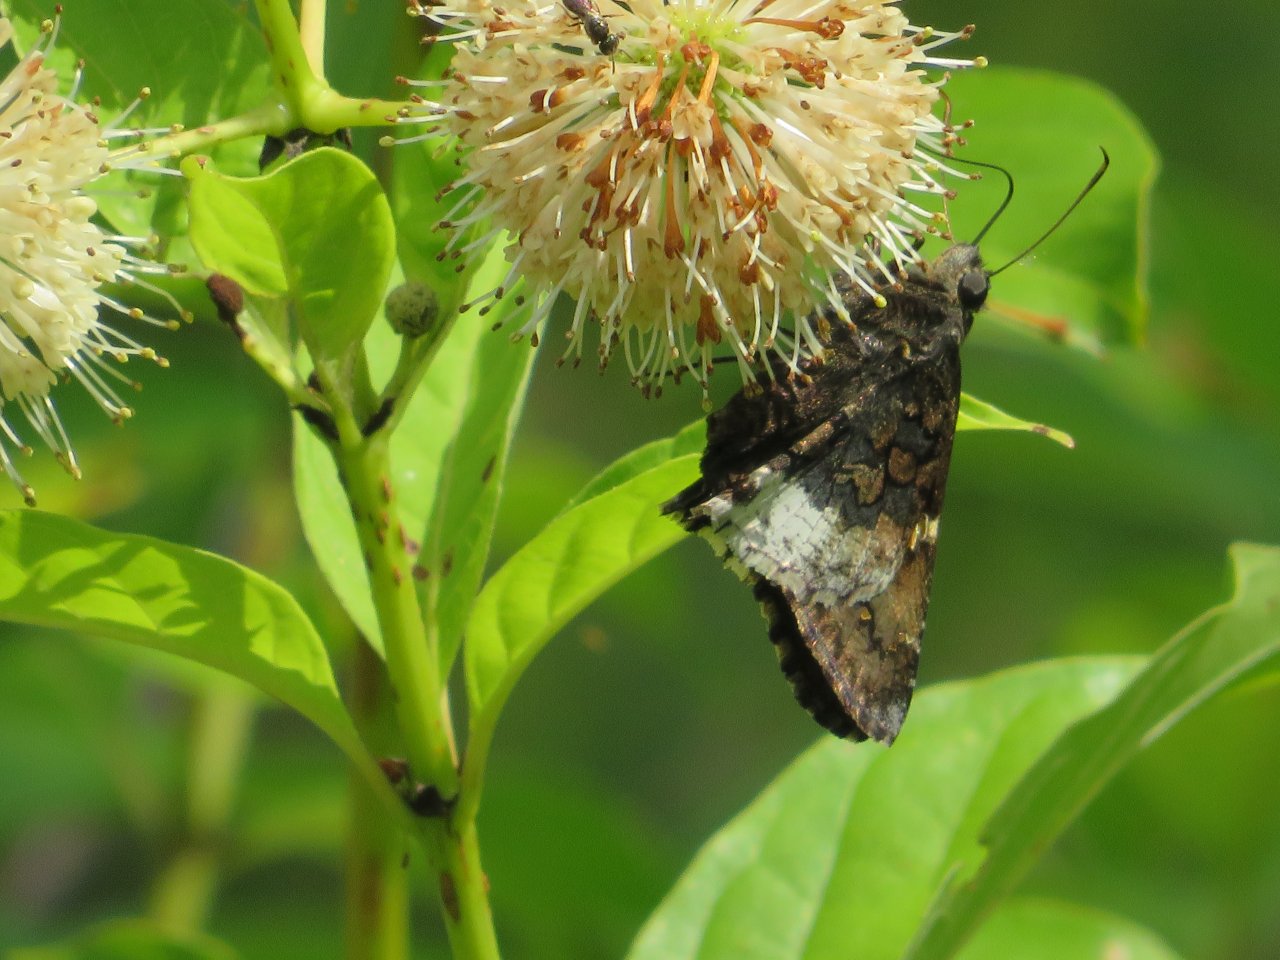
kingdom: Animalia
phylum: Arthropoda
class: Insecta
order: Lepidoptera
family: Hesperiidae
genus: Achalarus
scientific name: Achalarus lyciades
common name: Hoary Edge
